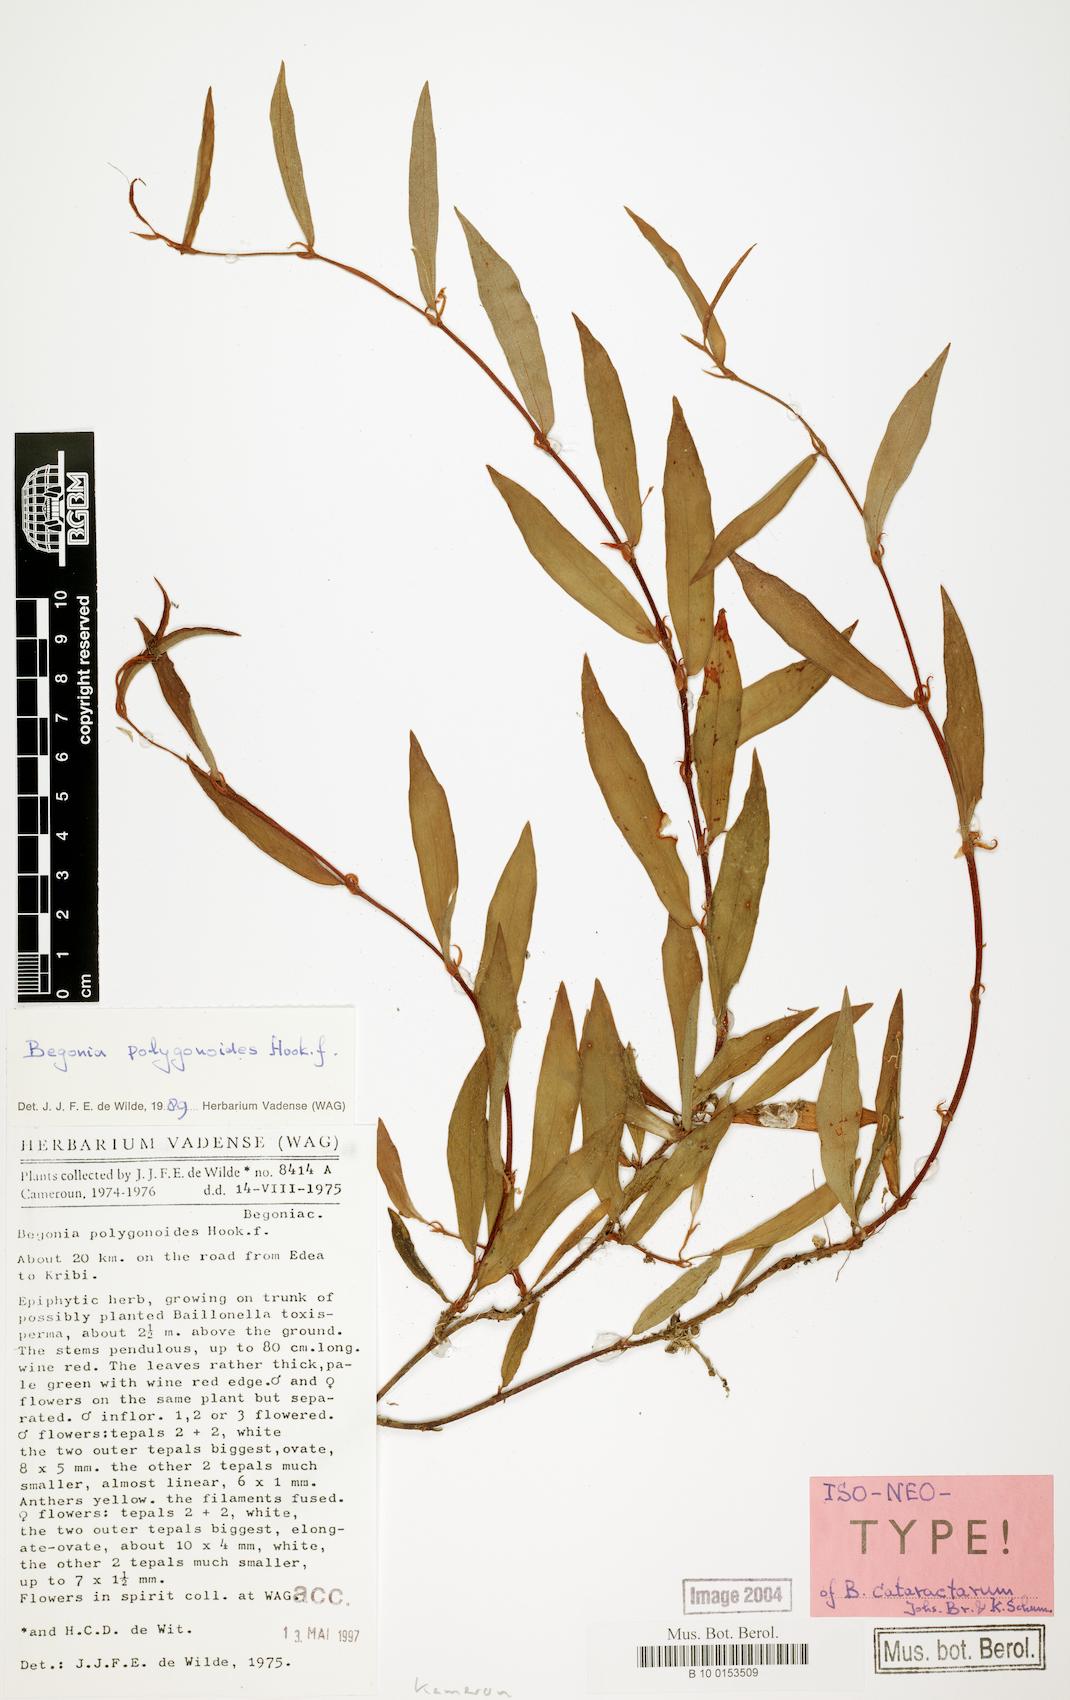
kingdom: Plantae
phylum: Tracheophyta
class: Magnoliopsida
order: Cucurbitales
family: Begoniaceae
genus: Begonia
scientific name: Begonia polygonoides
